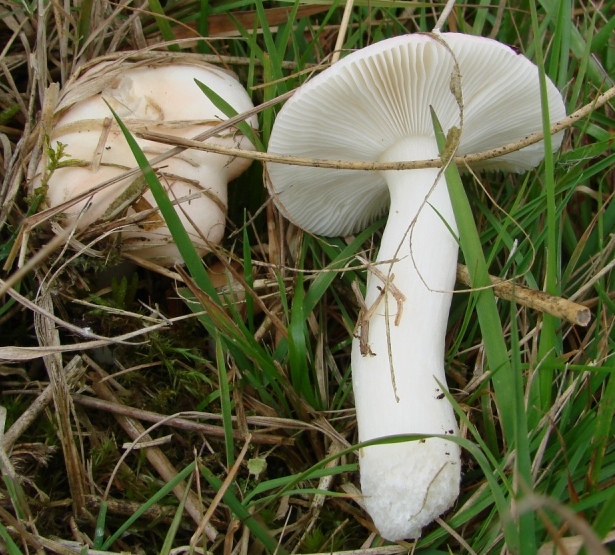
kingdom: Fungi
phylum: Basidiomycota
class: Agaricomycetes
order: Russulales
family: Russulaceae
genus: Russula
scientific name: Russula betularum
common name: bleg gift-skørhat
